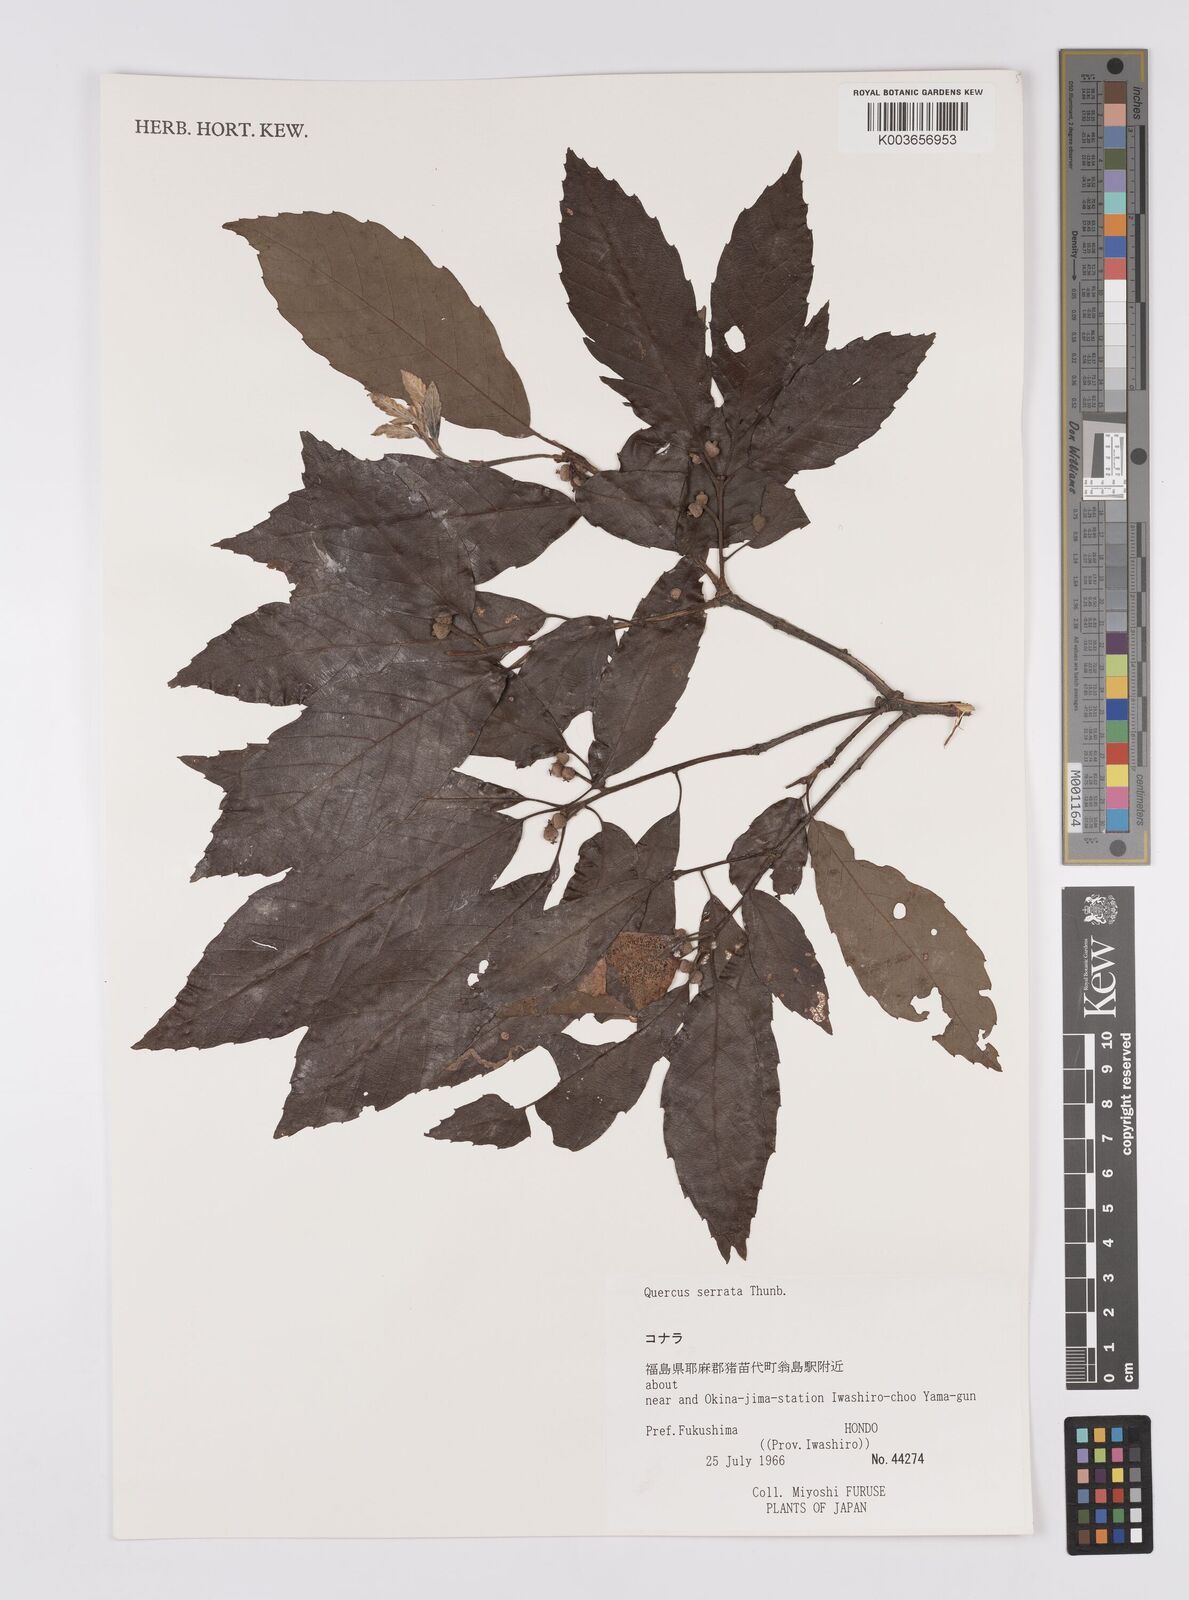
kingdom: Plantae
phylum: Tracheophyta
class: Magnoliopsida
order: Fagales
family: Fagaceae
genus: Quercus
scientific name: Quercus serrata
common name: Bao li
